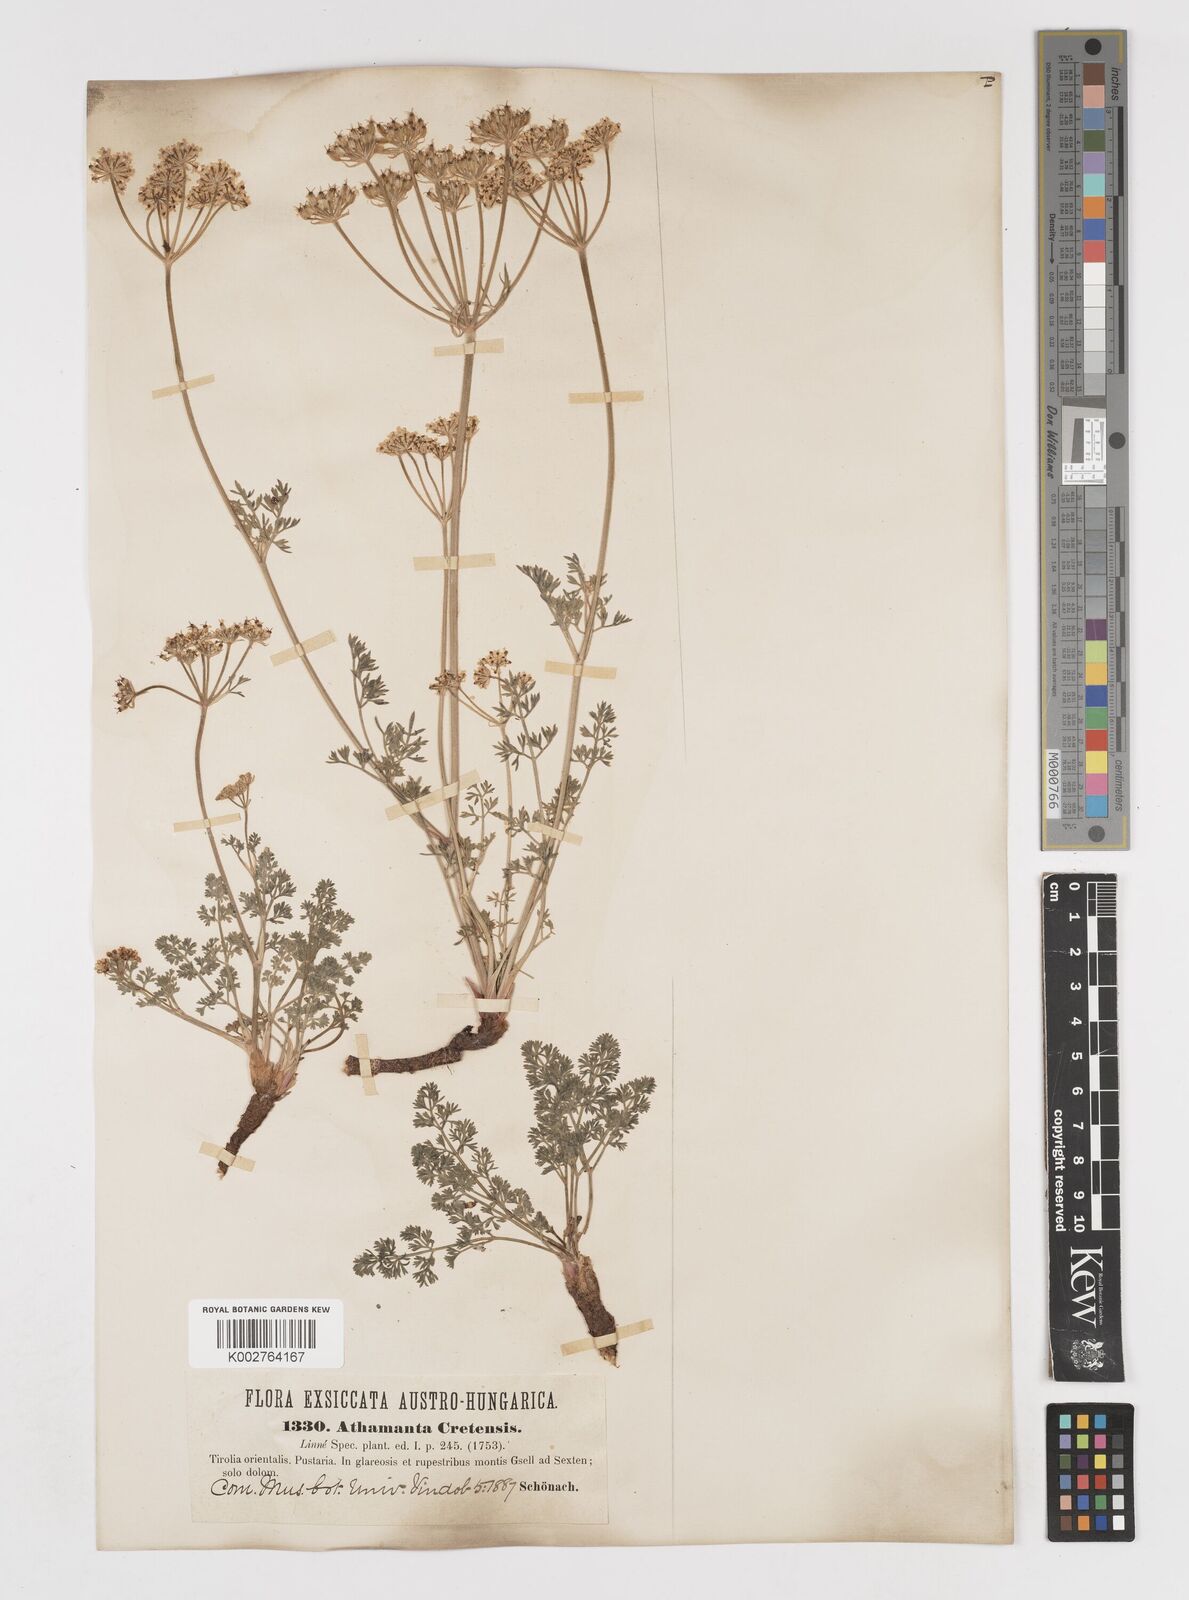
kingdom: Plantae
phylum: Tracheophyta
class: Magnoliopsida
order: Apiales
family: Apiaceae
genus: Athamanta
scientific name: Athamanta cretensis
